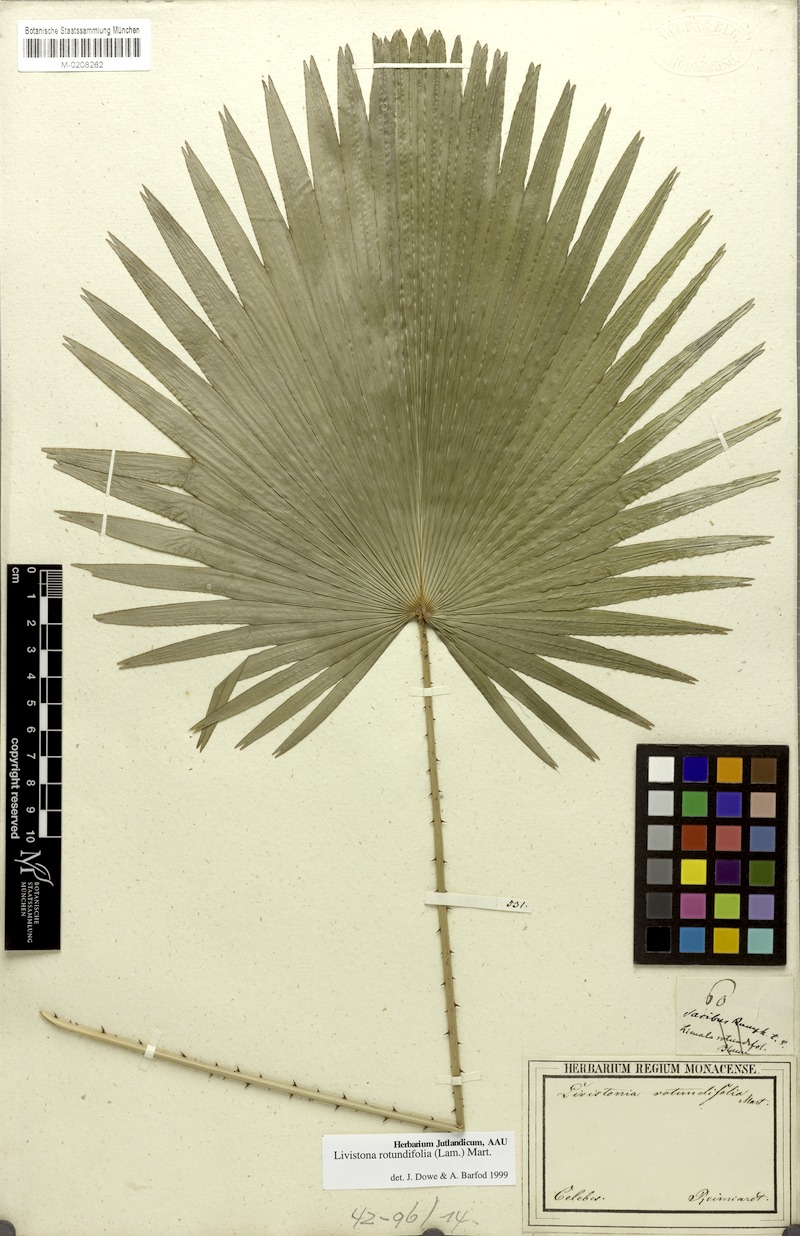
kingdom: Plantae
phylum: Tracheophyta
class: Liliopsida
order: Arecales
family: Arecaceae
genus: Saribus
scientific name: Saribus rotundifolius
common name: Palm
